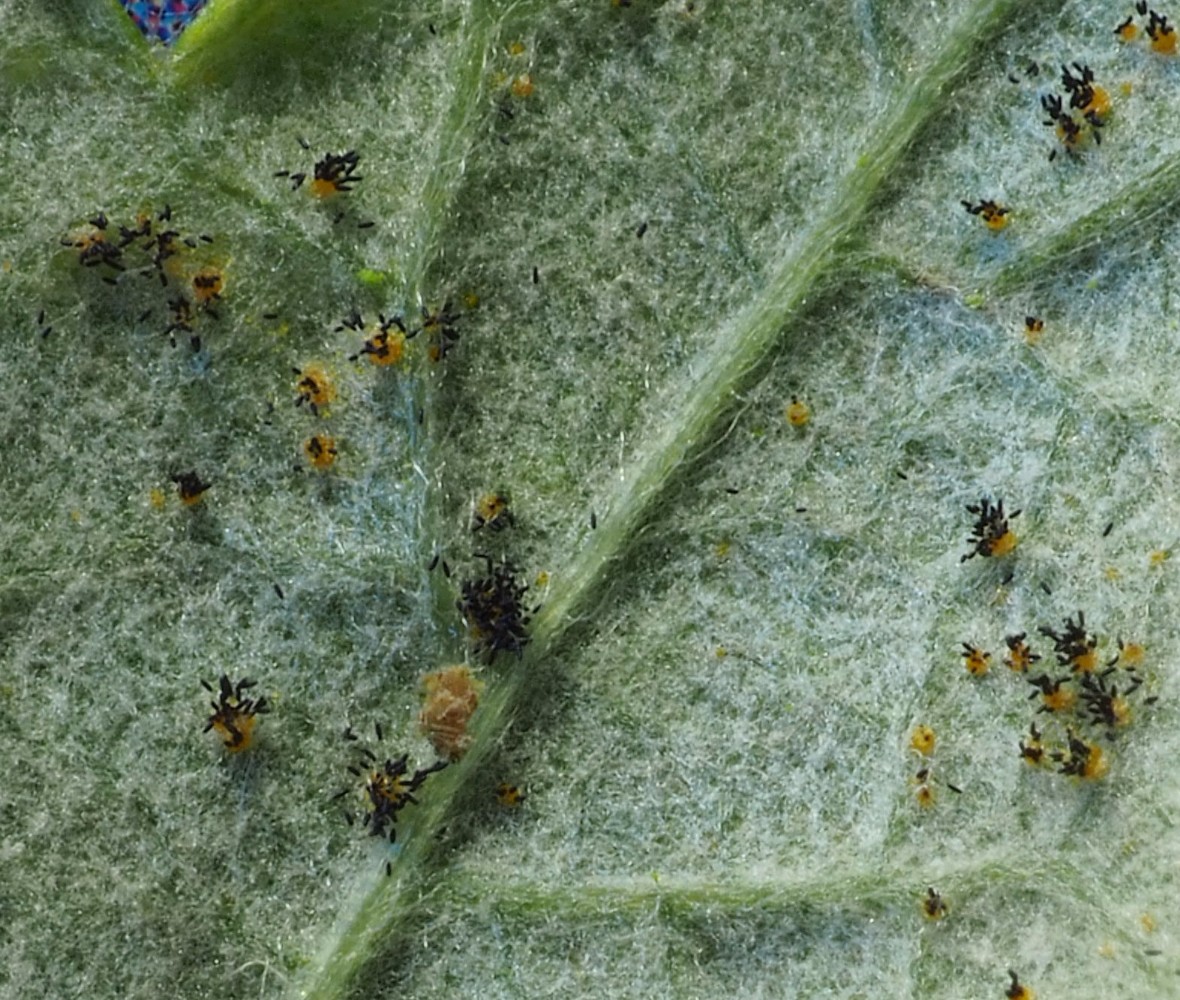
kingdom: Fungi
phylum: Basidiomycota
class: Pucciniomycetes
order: Pucciniales
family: Phragmidiaceae
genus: Phragmidium
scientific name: Phragmidium rubi-idaei
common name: hindbær-flercellerust
